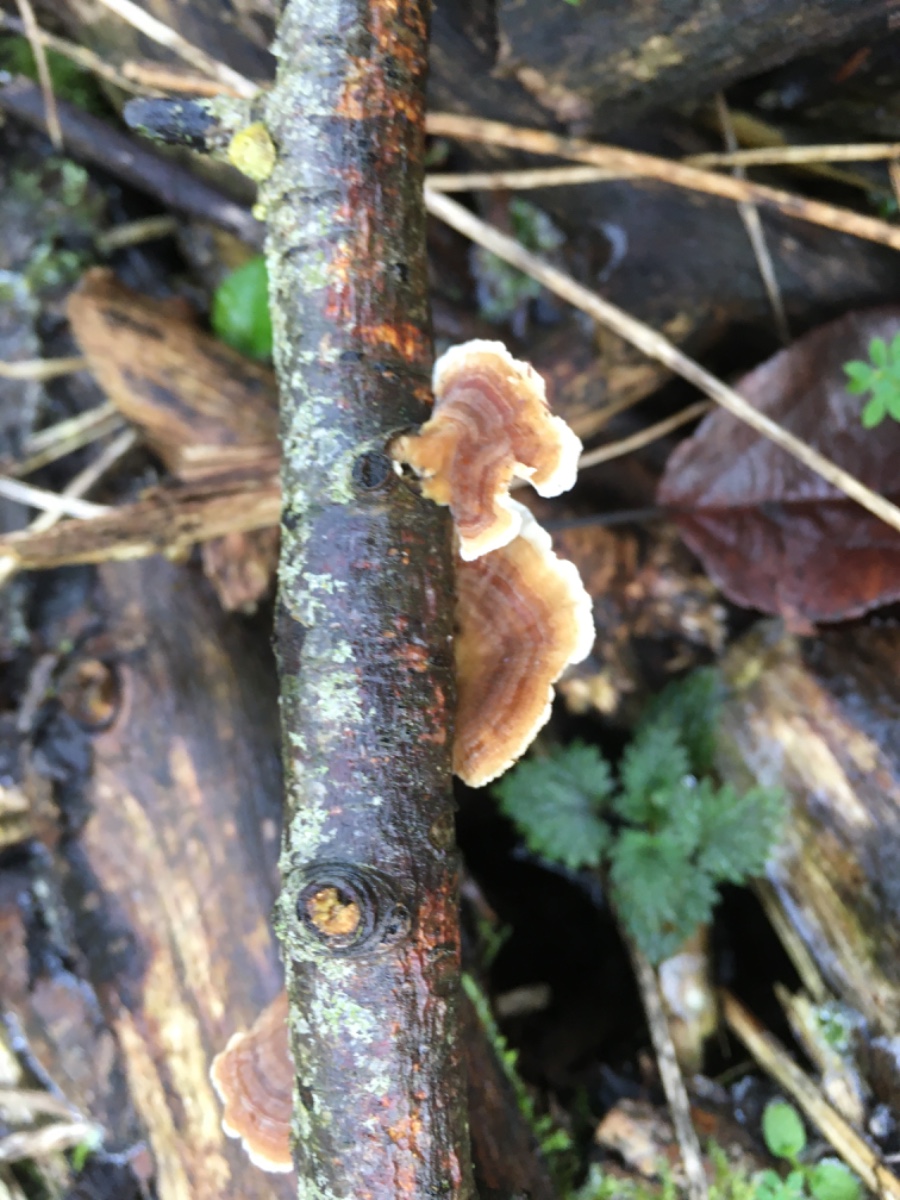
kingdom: Fungi
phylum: Basidiomycota
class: Agaricomycetes
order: Polyporales
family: Polyporaceae
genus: Trametes
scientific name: Trametes versicolor
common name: broget læderporesvamp
